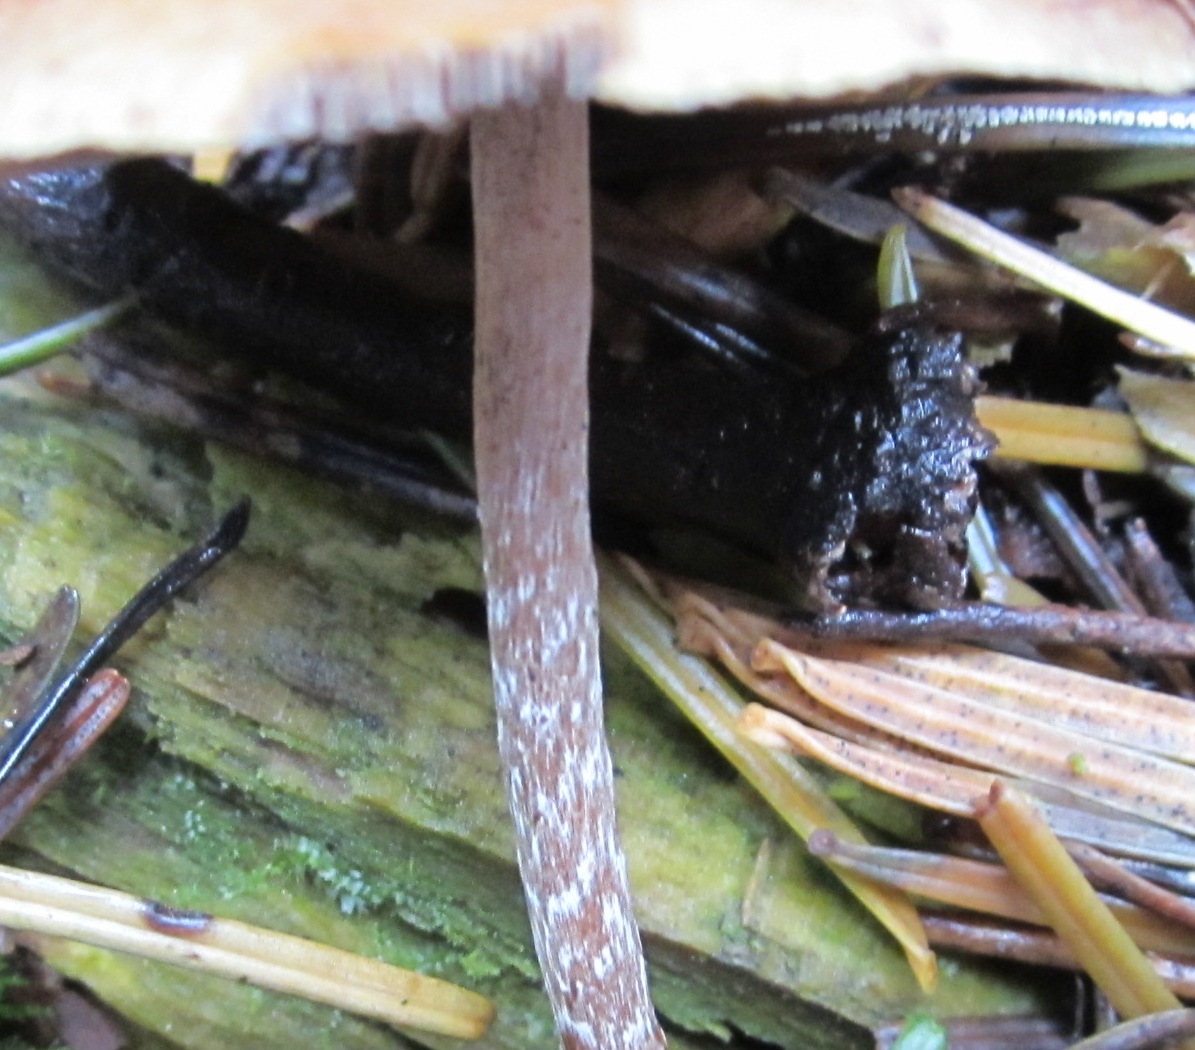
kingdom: Fungi
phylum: Basidiomycota
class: Agaricomycetes
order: Agaricales
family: Strophariaceae
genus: Hypholoma
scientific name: Hypholoma marginatum
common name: enlig svovlhat
